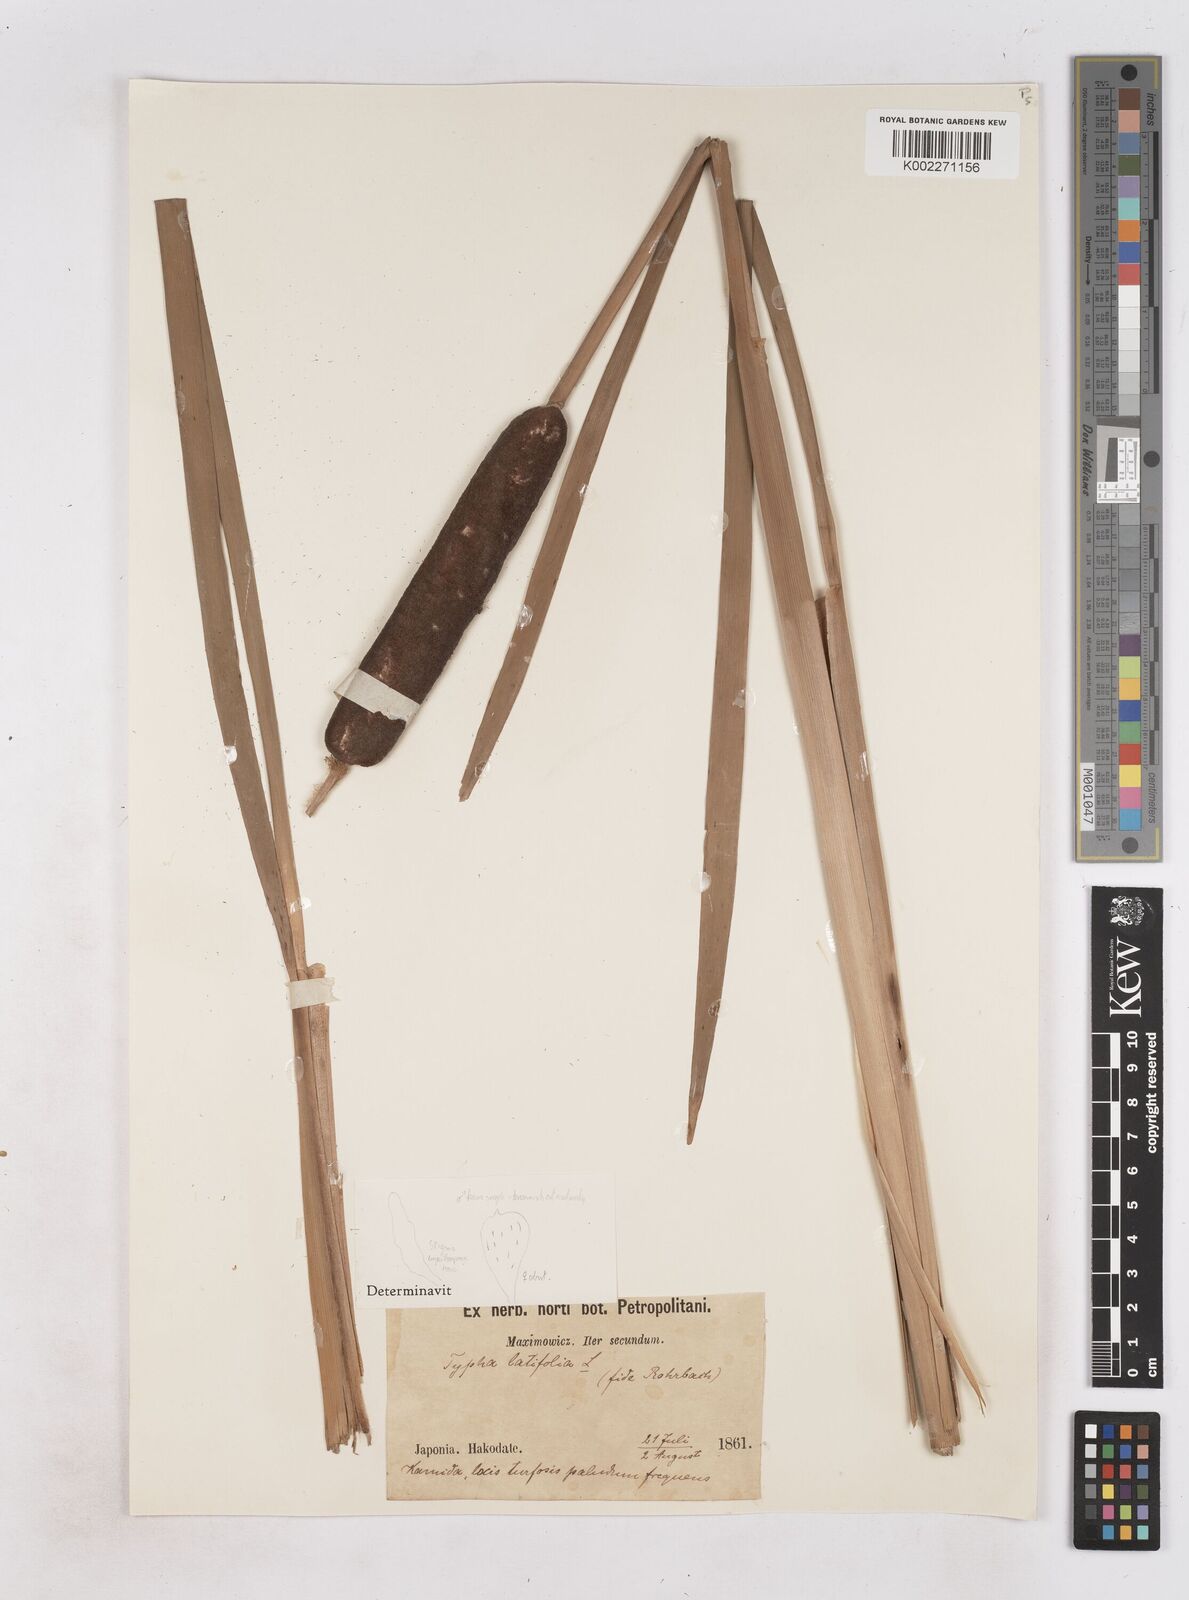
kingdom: Plantae
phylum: Tracheophyta
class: Liliopsida
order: Poales
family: Typhaceae
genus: Typha
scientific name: Typha latifolia
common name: Broadleaf cattail
